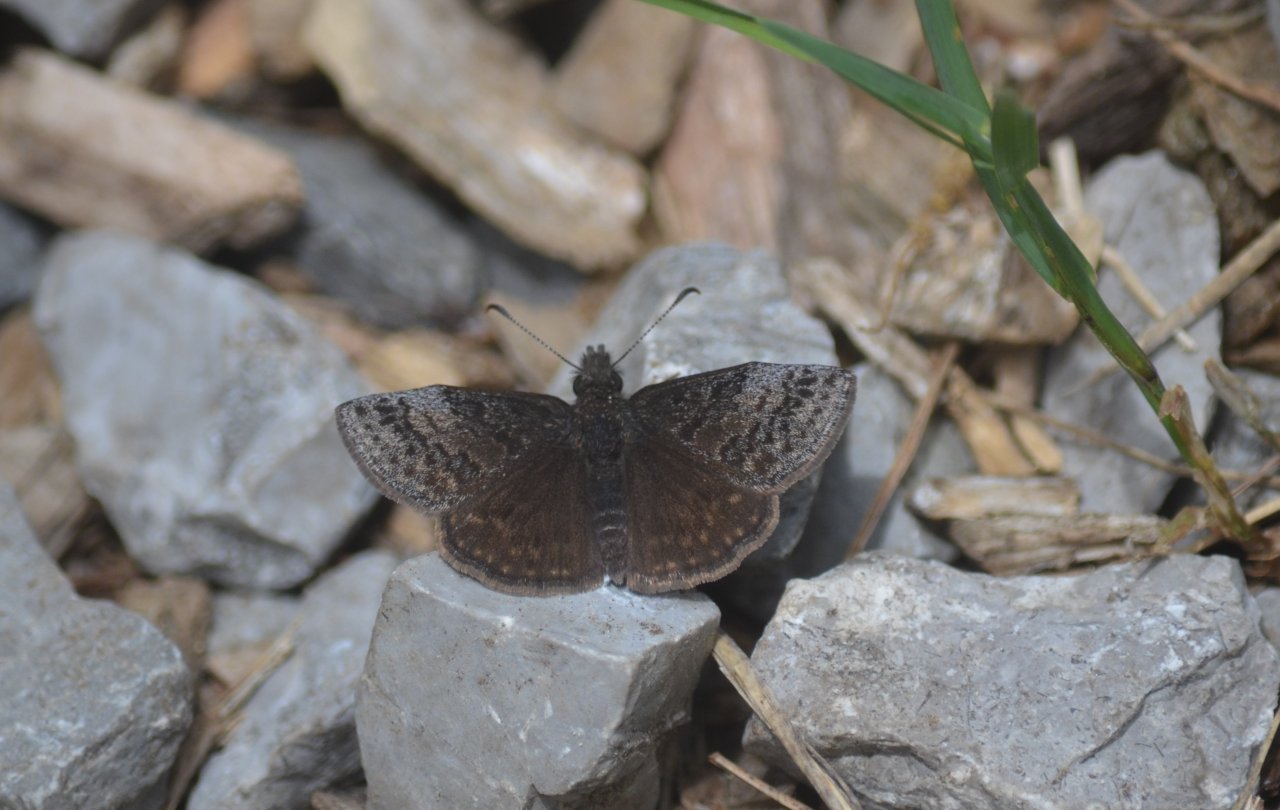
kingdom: Animalia
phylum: Arthropoda
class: Insecta
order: Lepidoptera
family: Hesperiidae
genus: Erynnis
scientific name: Erynnis icelus
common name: Dreamy Duskywing
